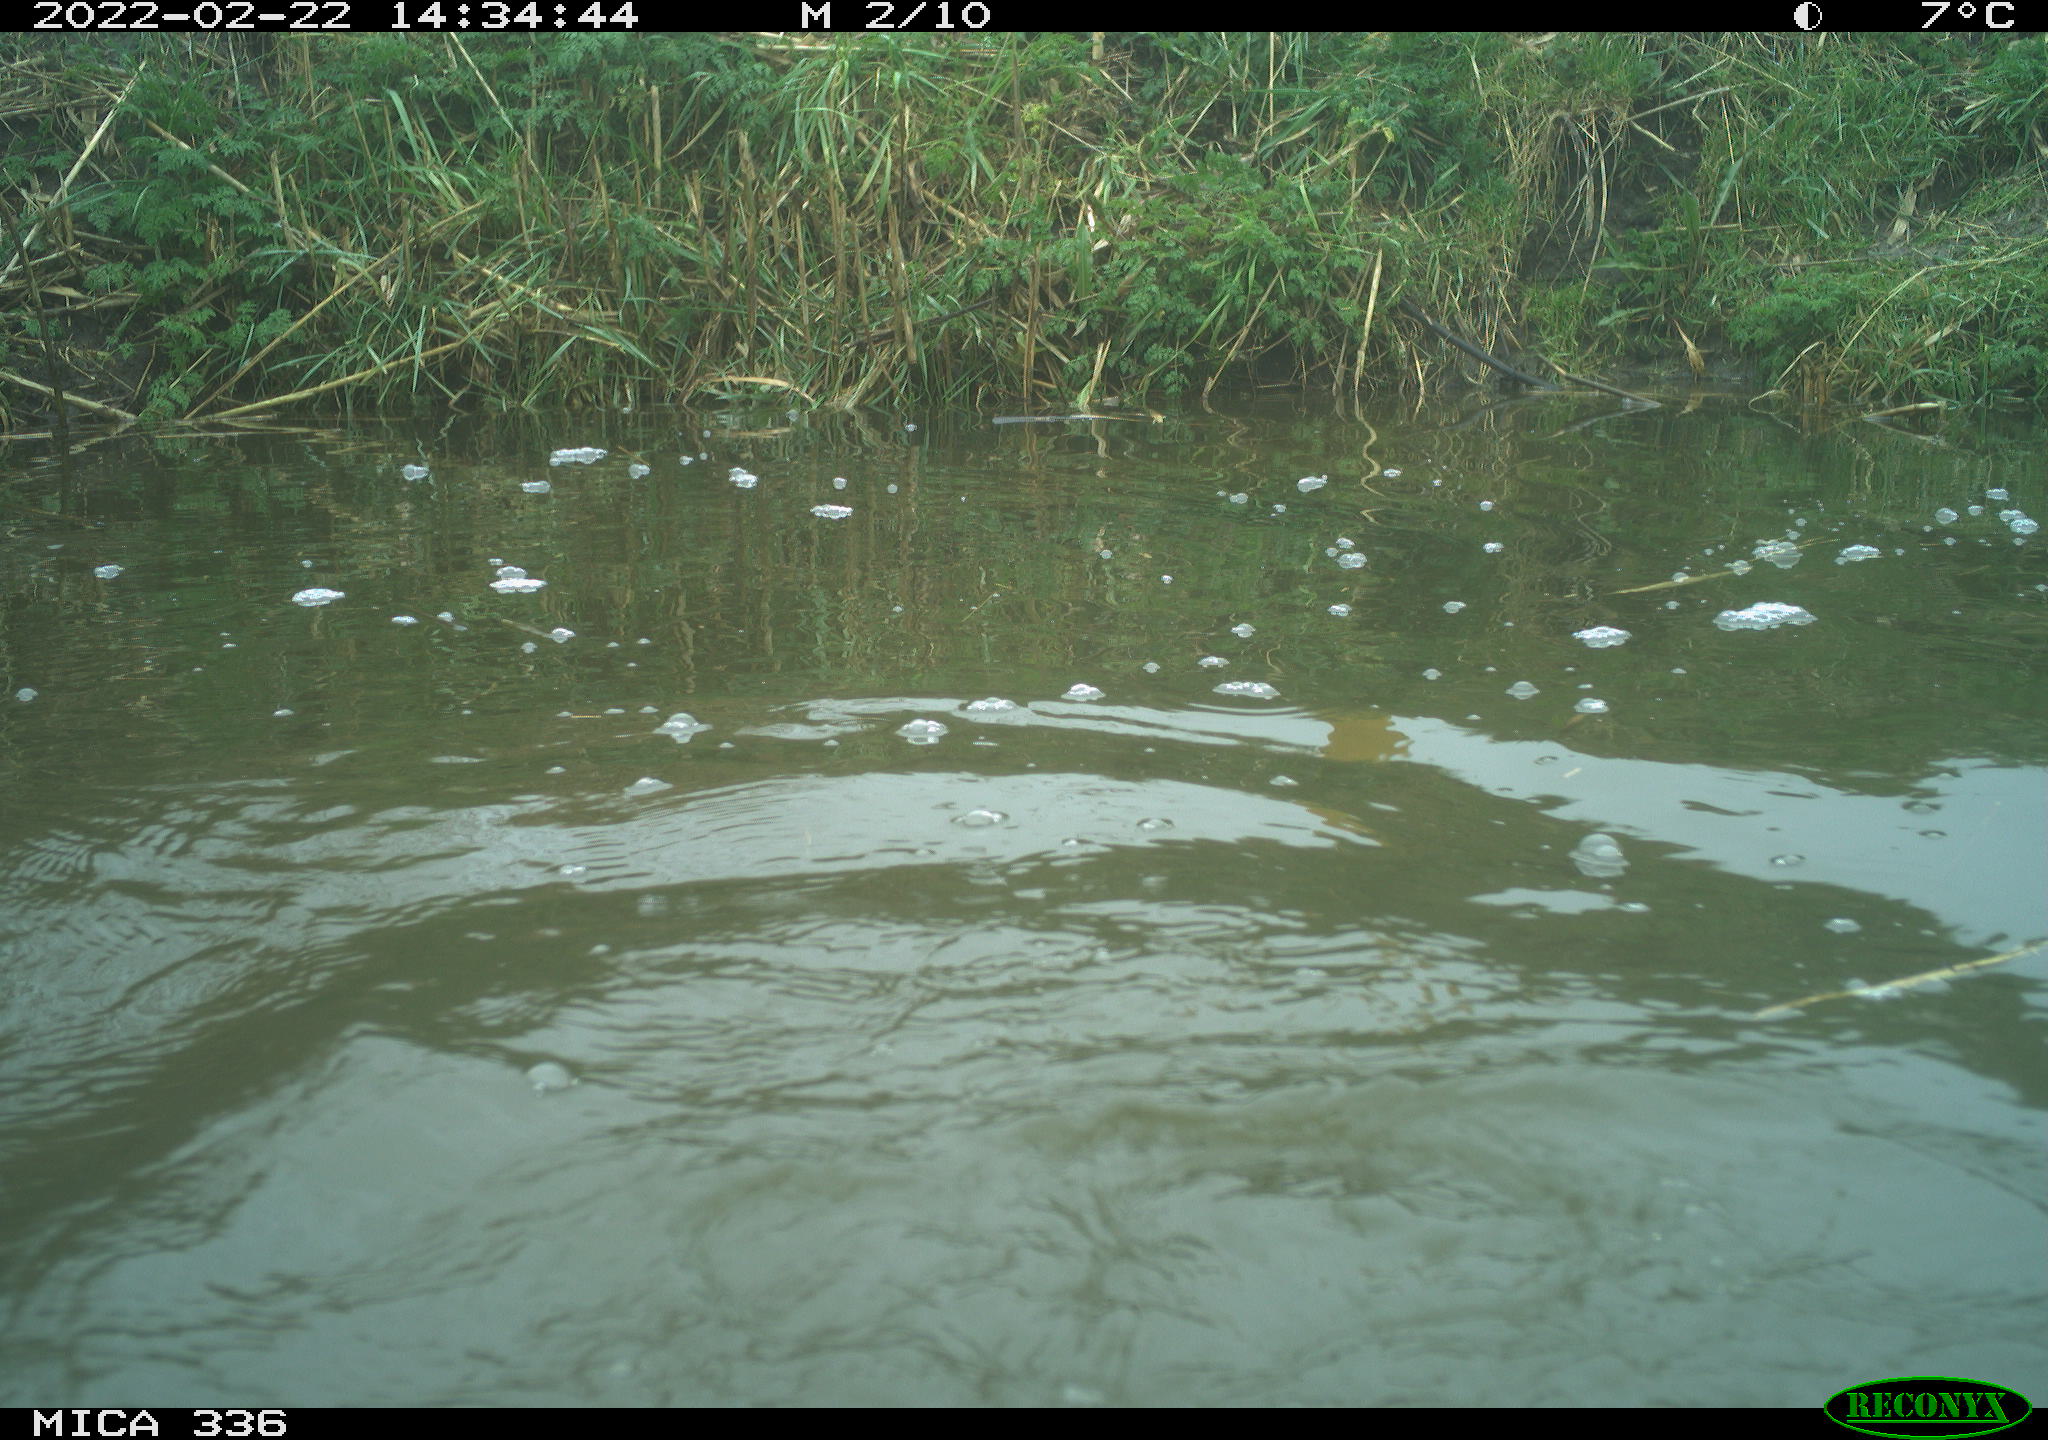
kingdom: Animalia
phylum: Chordata
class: Aves
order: Suliformes
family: Phalacrocoracidae
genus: Phalacrocorax
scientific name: Phalacrocorax carbo
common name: Great cormorant
